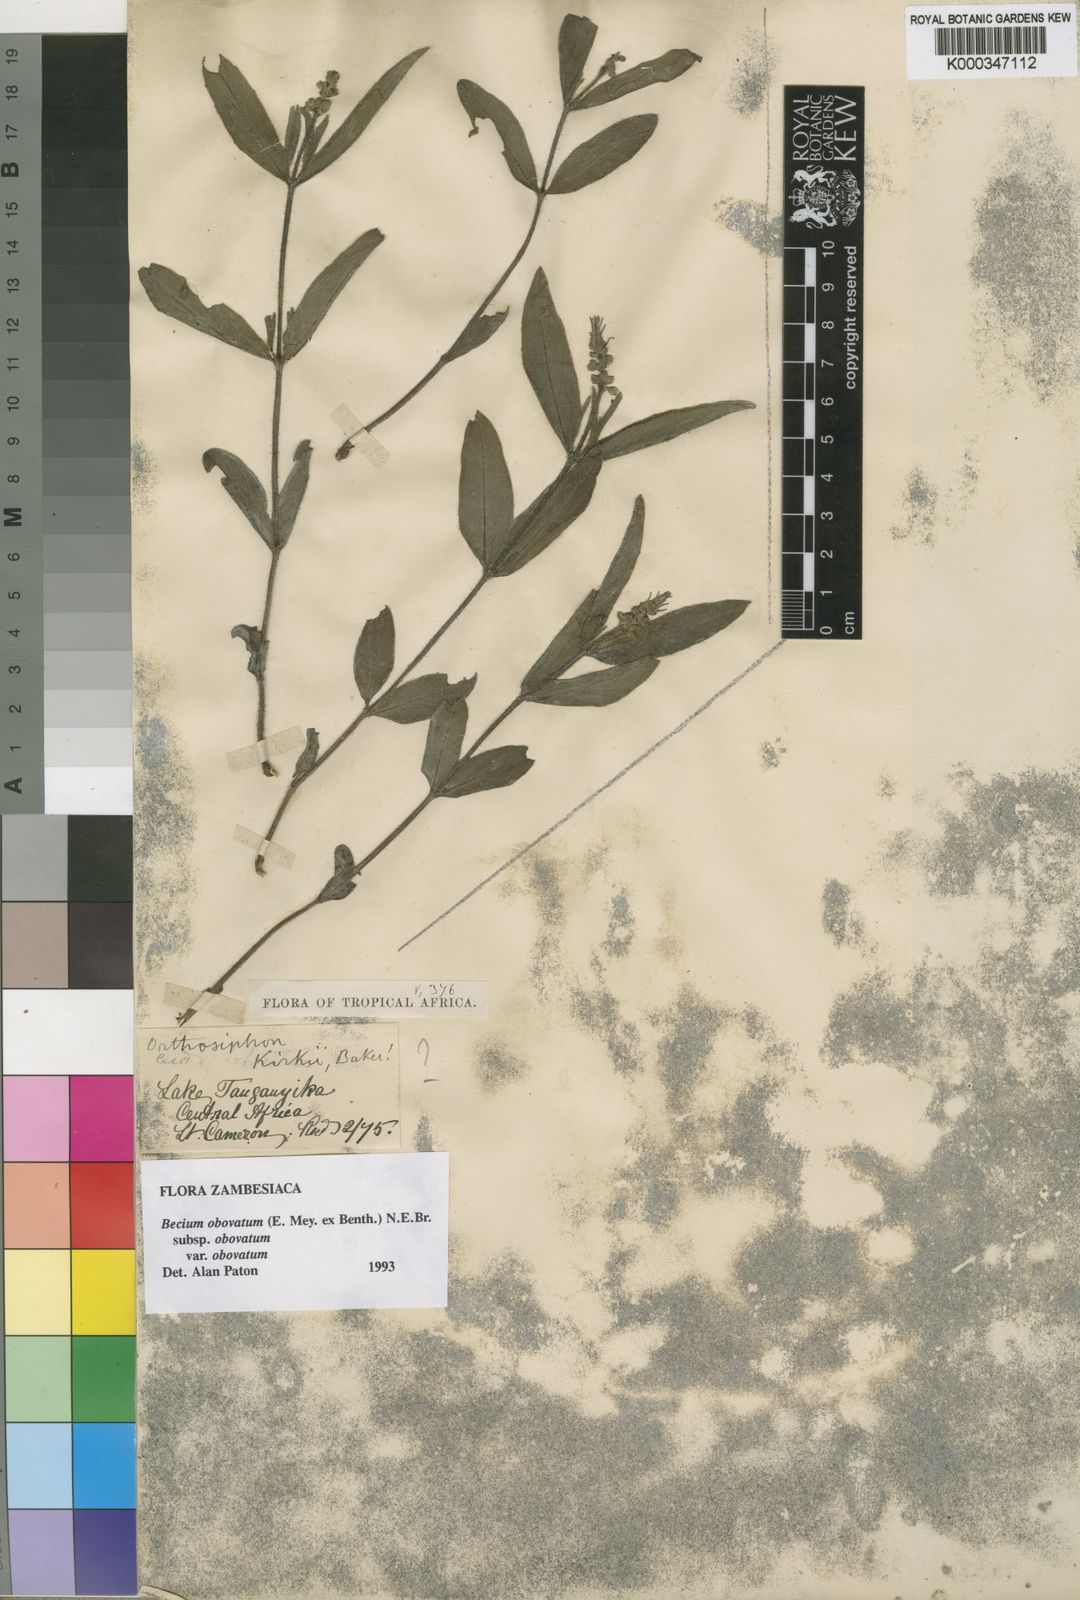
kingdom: Plantae
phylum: Tracheophyta
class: Magnoliopsida
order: Lamiales
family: Lamiaceae
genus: Ocimum
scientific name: Ocimum obovatum
